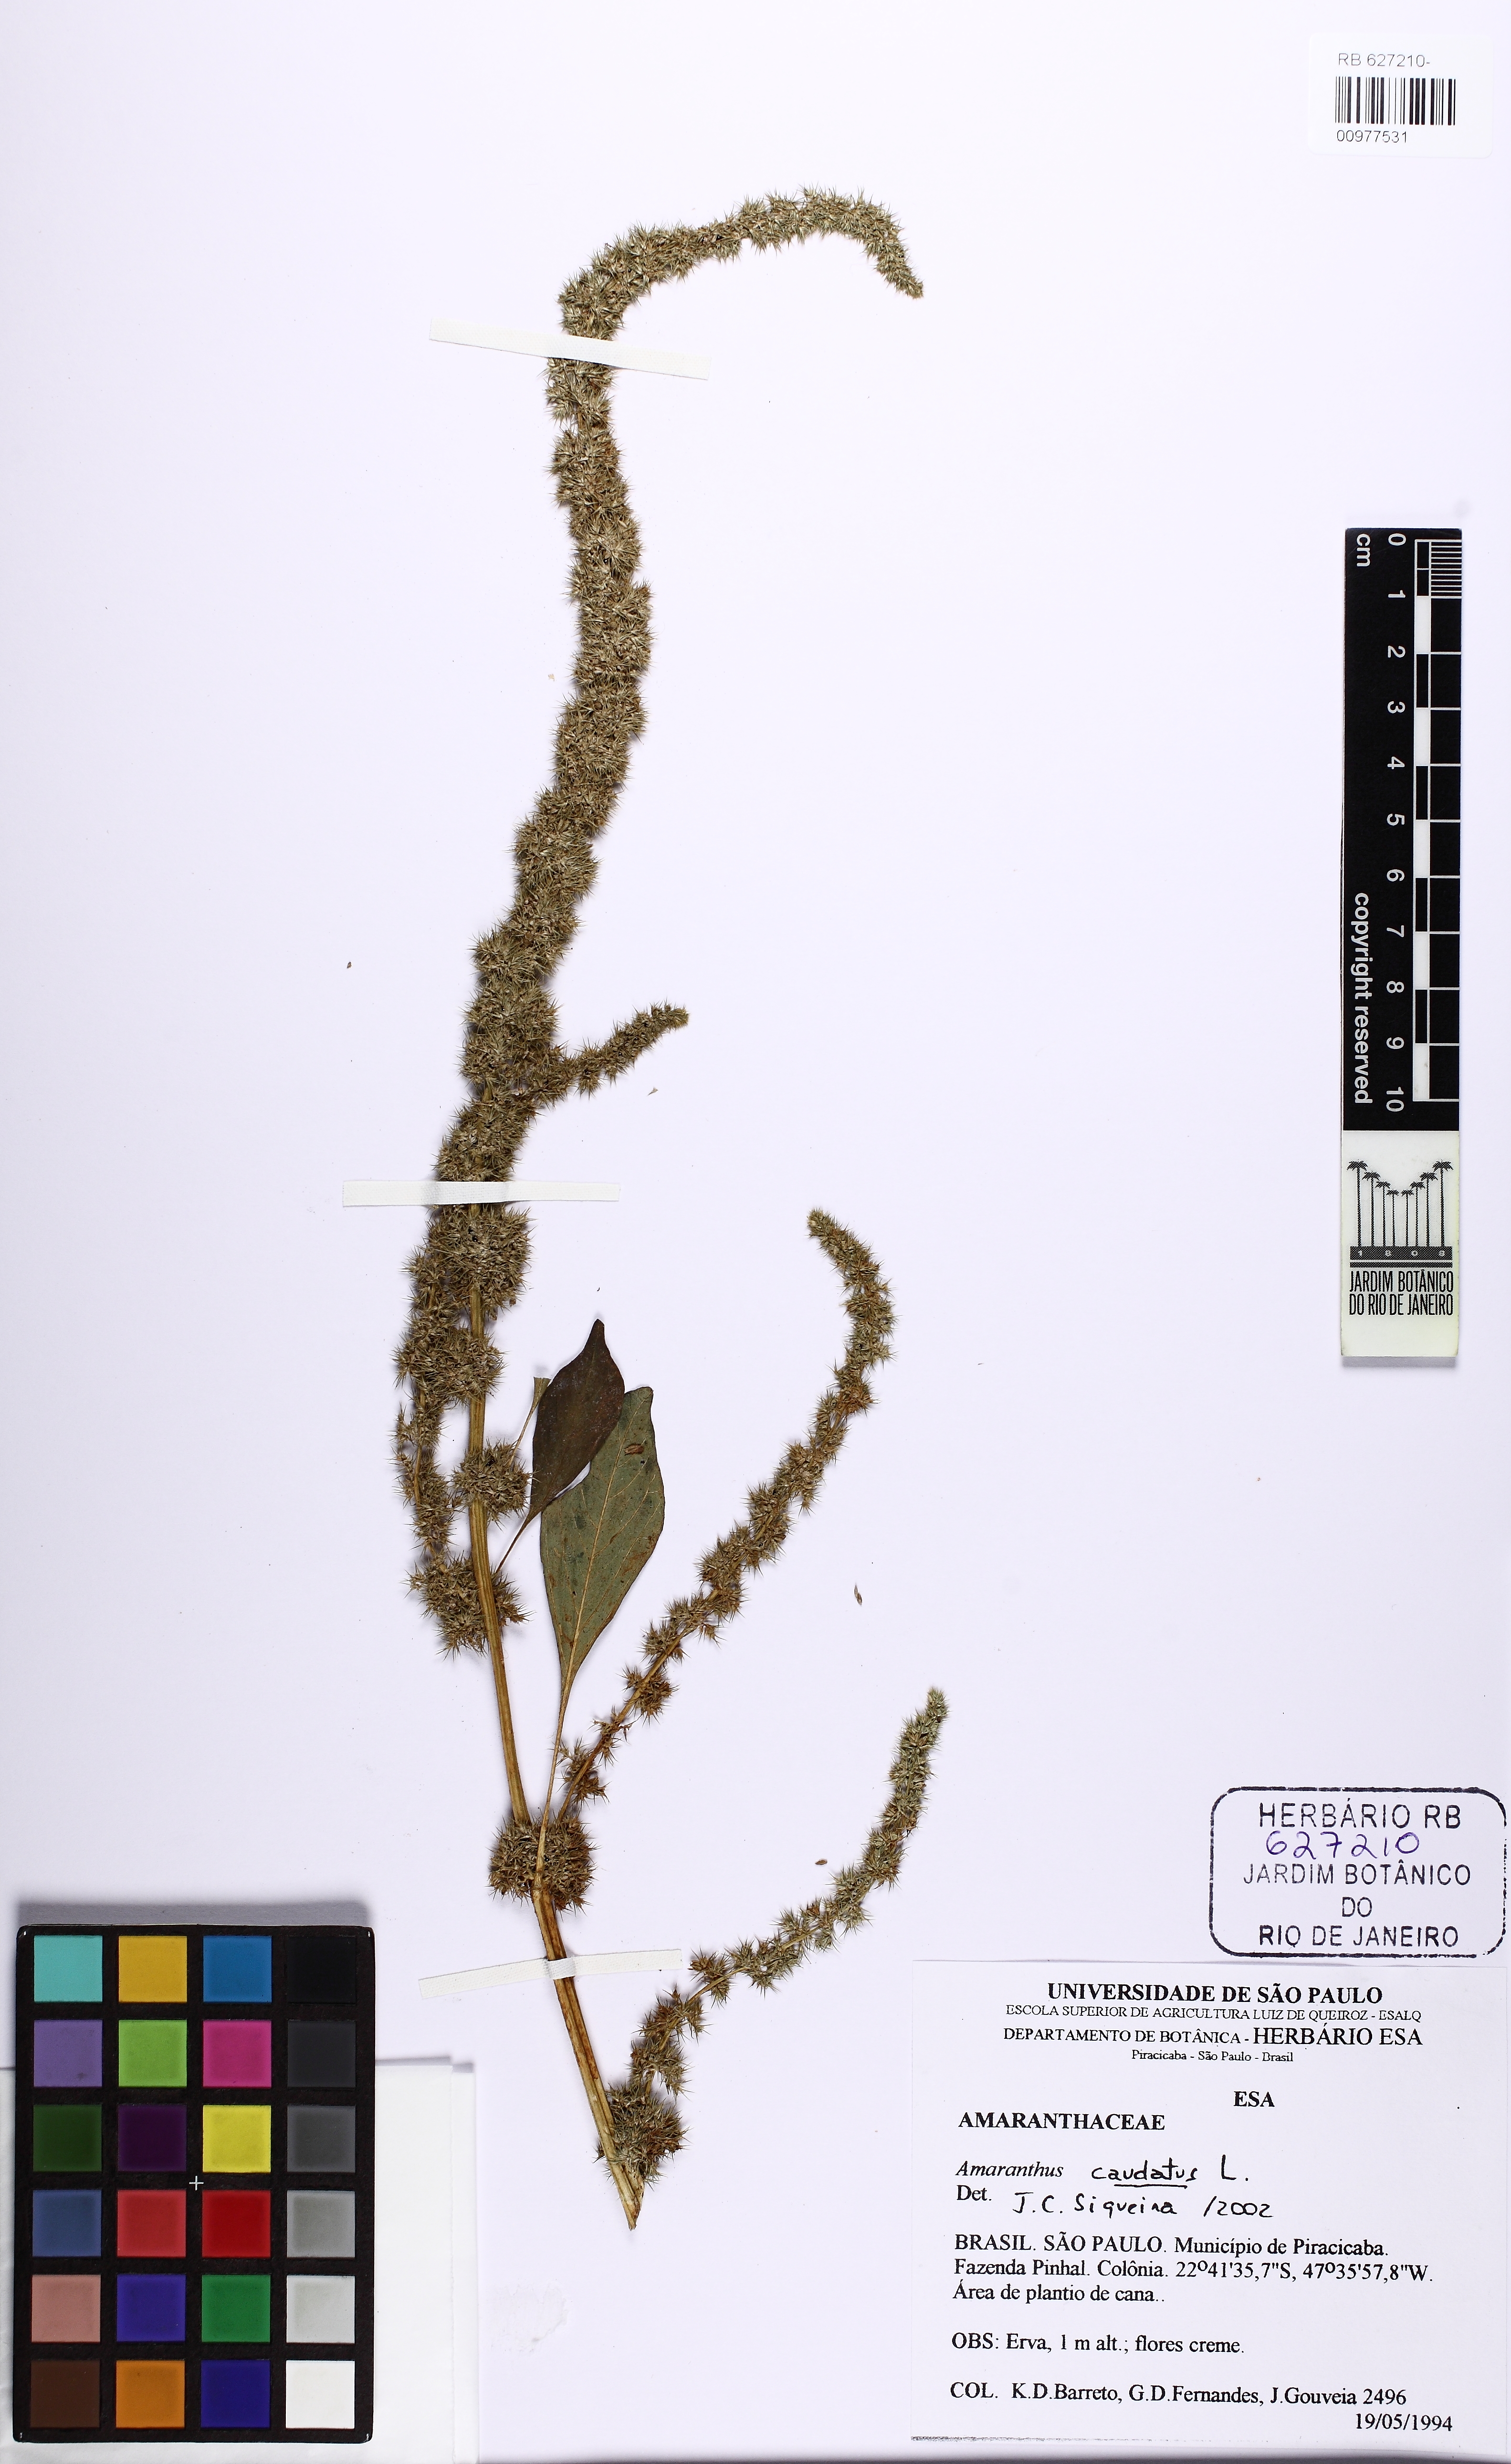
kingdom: Plantae
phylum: Tracheophyta
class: Magnoliopsida
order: Caryophyllales
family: Amaranthaceae
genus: Amaranthus
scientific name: Amaranthus caudatus
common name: Love-lies-bleeding
